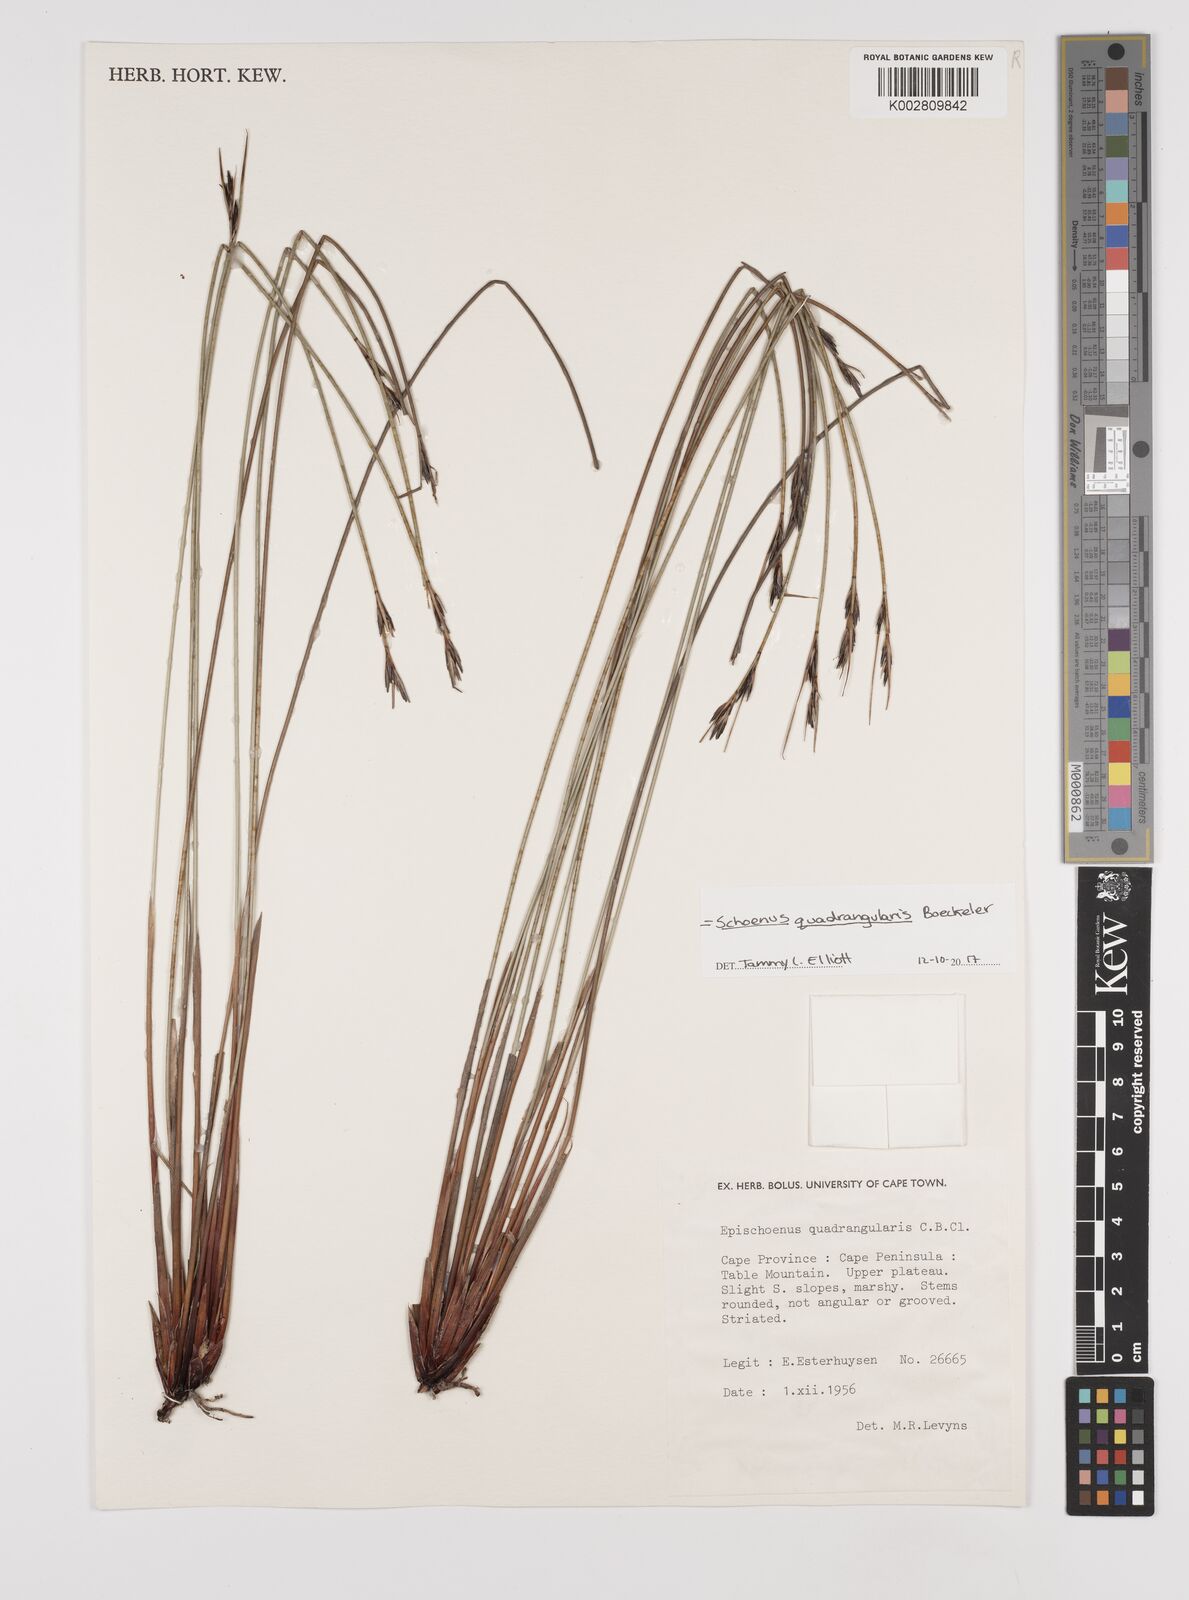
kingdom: Plantae
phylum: Tracheophyta
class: Liliopsida
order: Poales
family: Cyperaceae
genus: Schoenus
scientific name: Schoenus quadrangularis
